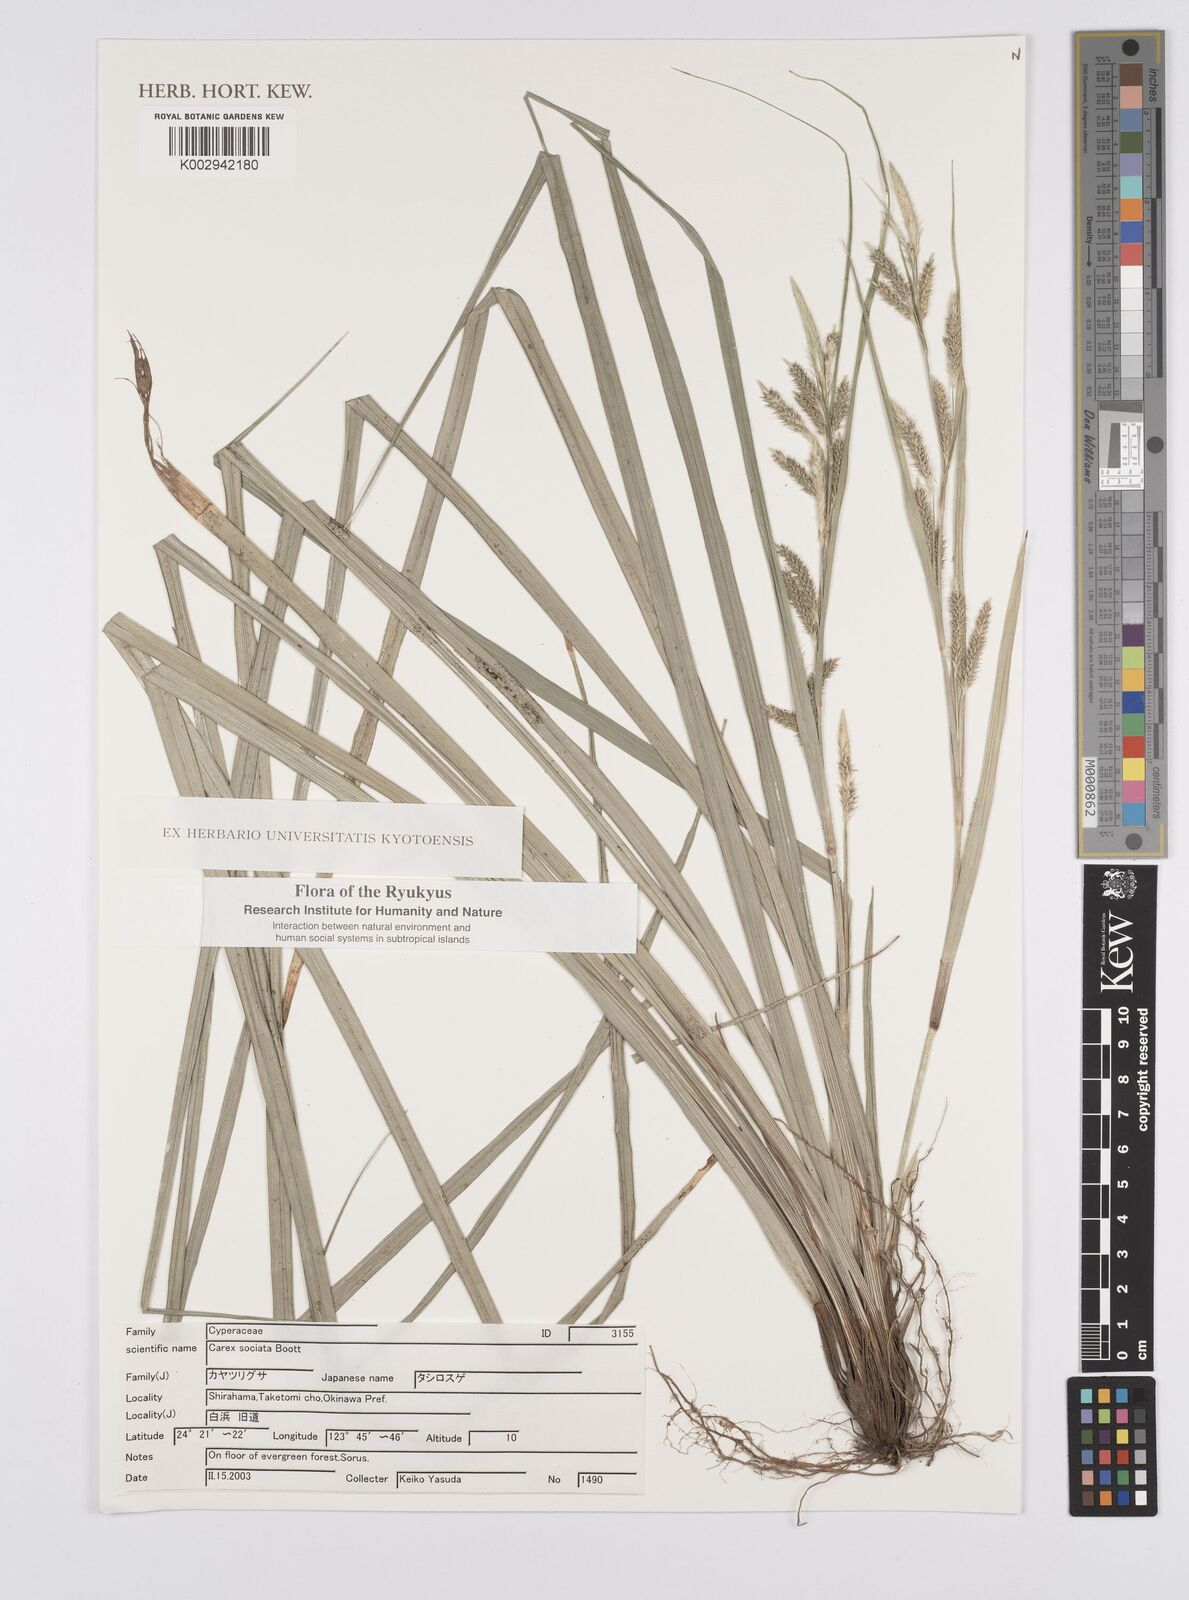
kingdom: Plantae
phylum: Tracheophyta
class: Liliopsida
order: Poales
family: Cyperaceae
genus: Carex
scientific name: Carex chinensis
